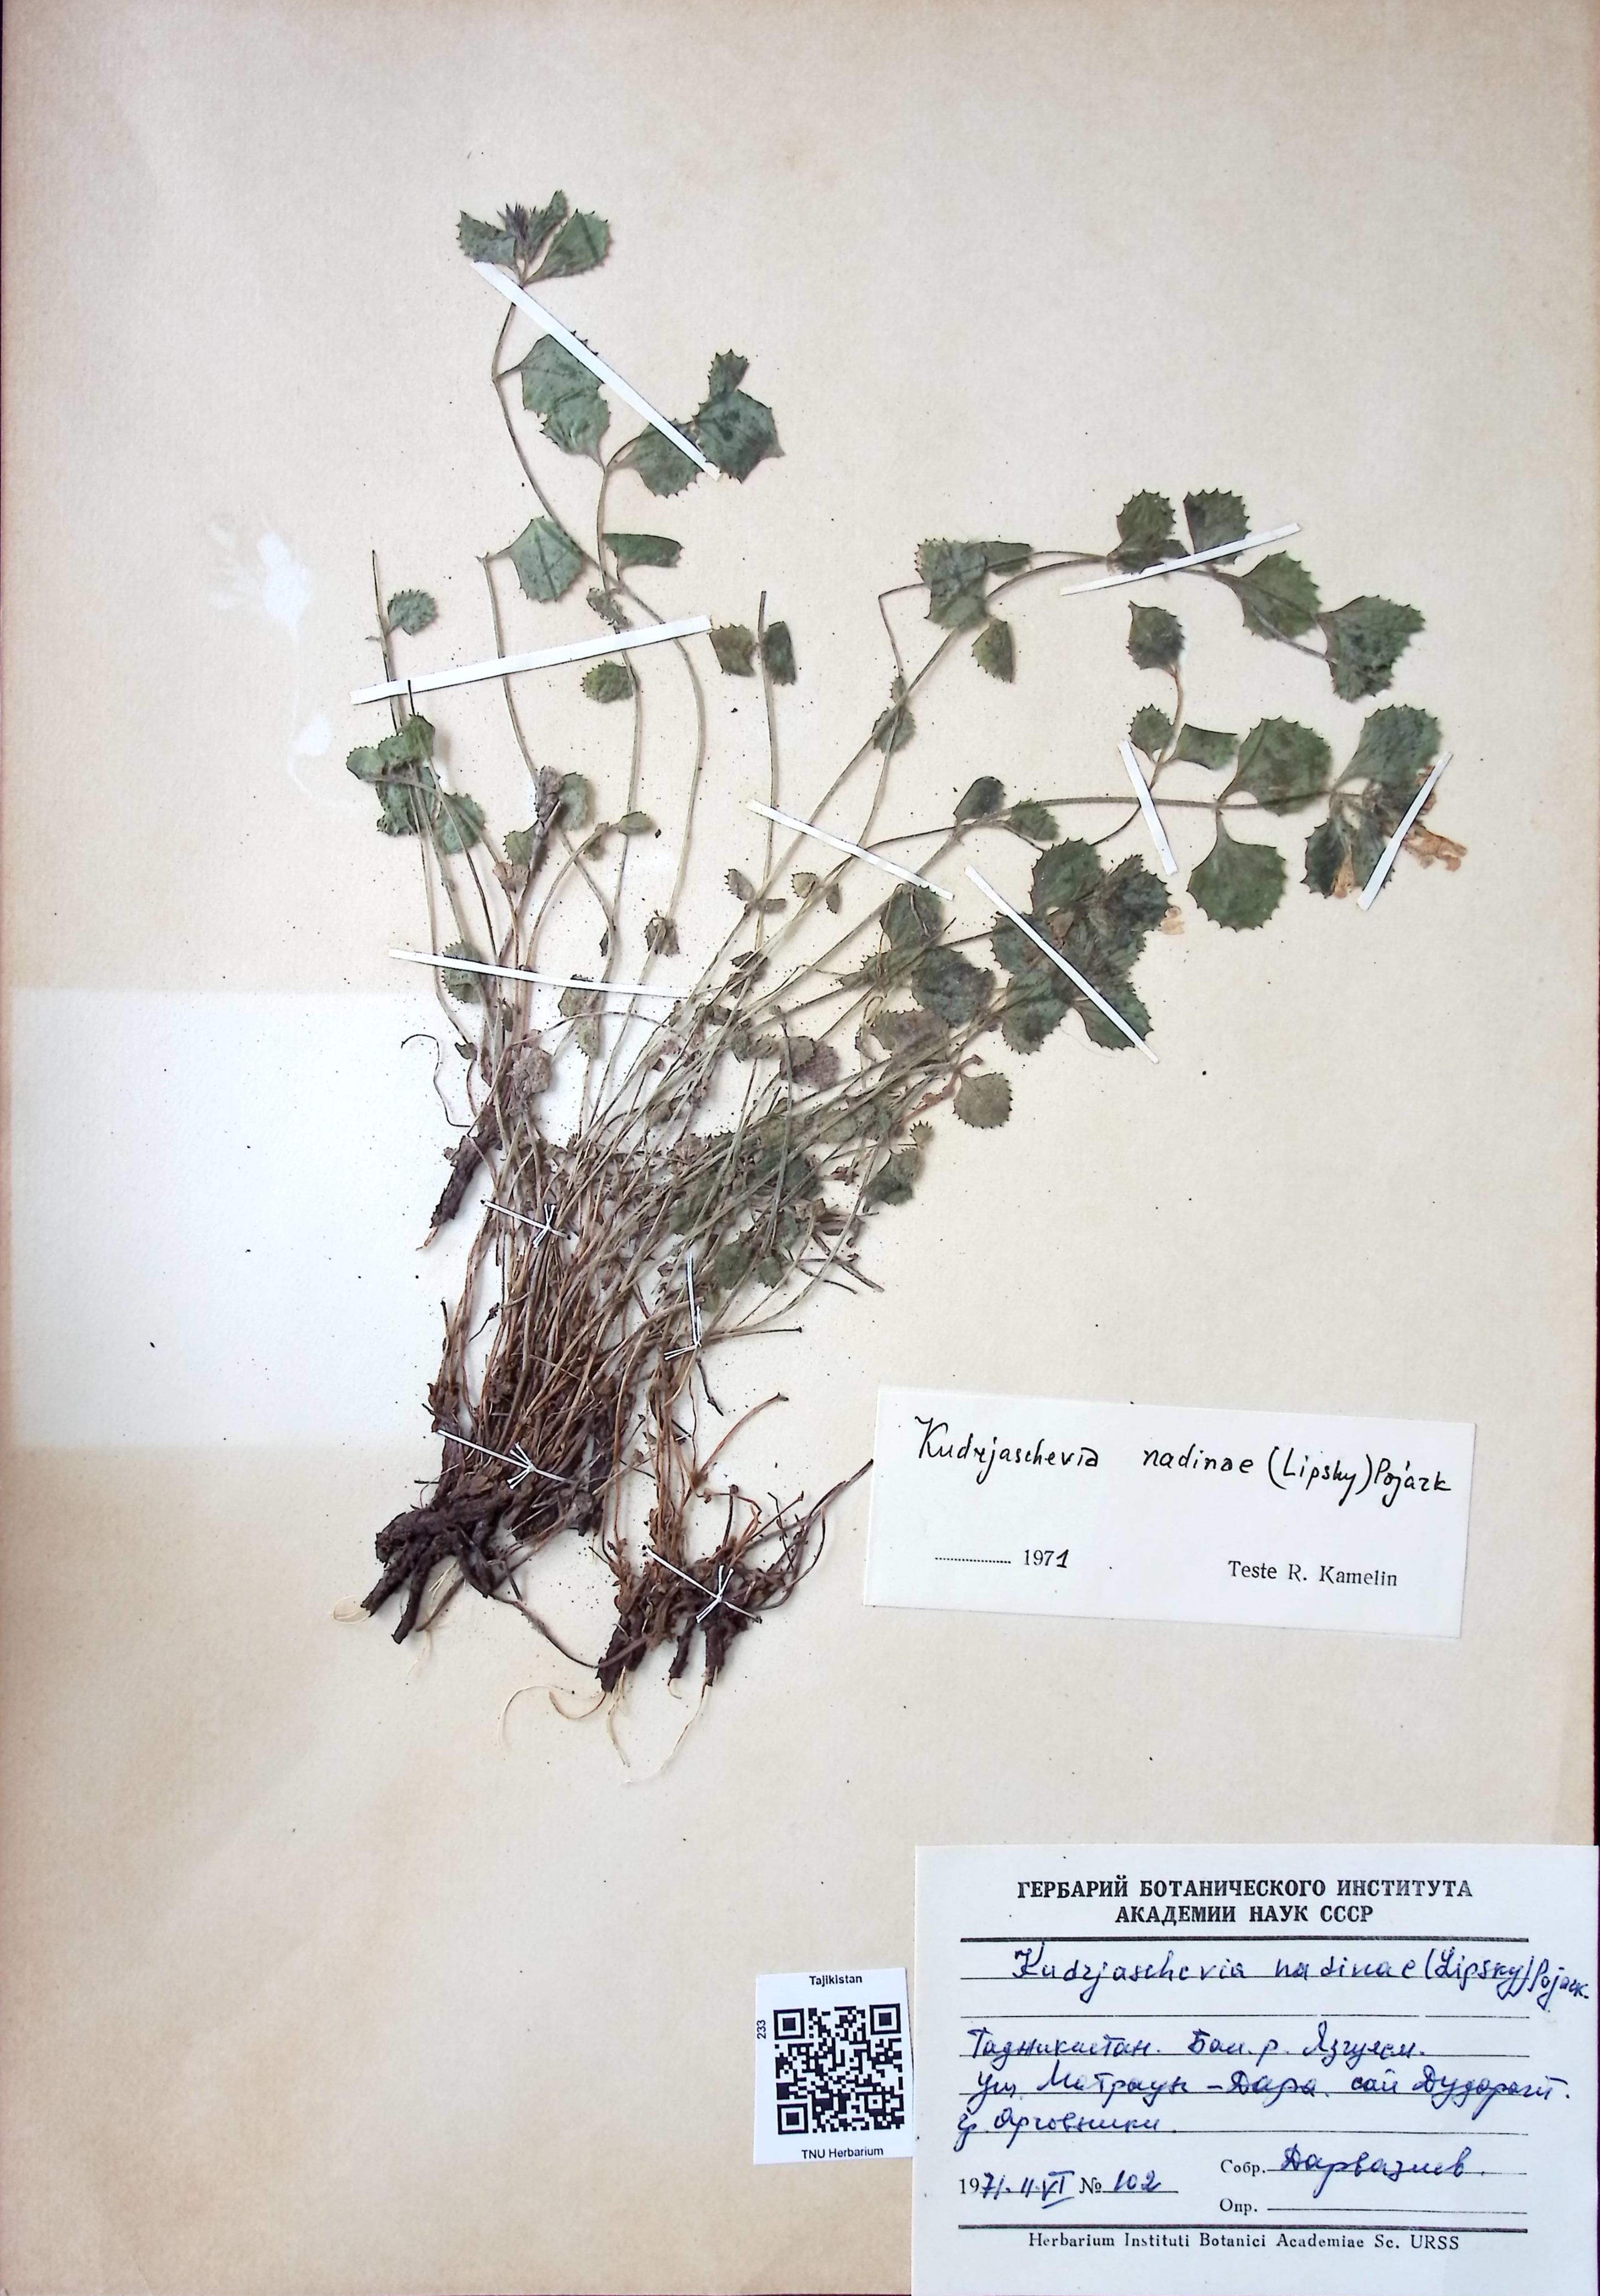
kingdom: Plantae
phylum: Tracheophyta
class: Magnoliopsida
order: Lamiales
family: Lamiaceae
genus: Kudrjaschevia
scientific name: Kudrjaschevia nadinae
